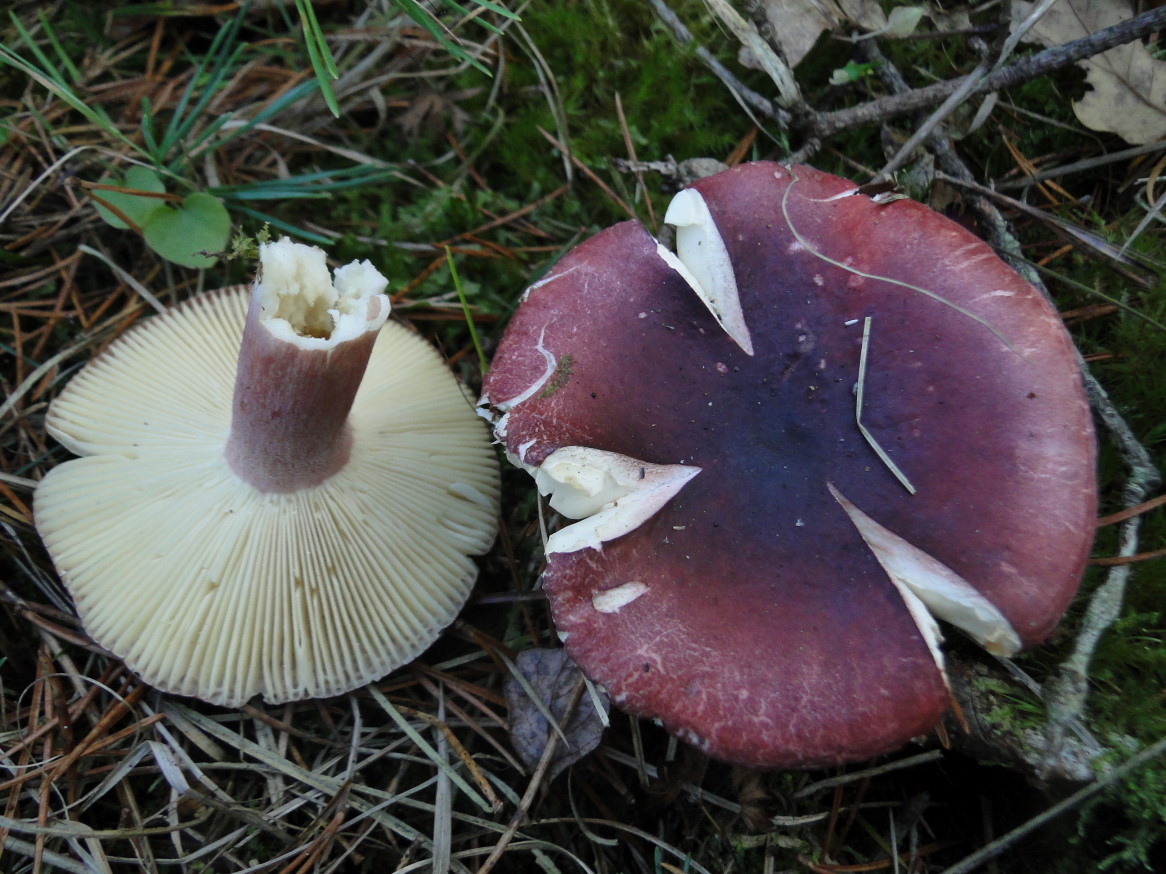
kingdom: Fungi
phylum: Basidiomycota
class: Agaricomycetes
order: Russulales
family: Russulaceae
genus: Russula
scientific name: Russula sardonia
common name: citronbladet skørhat
